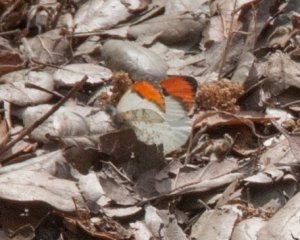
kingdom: Animalia
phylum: Arthropoda
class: Insecta
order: Lepidoptera
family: Pieridae
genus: Anthocharis
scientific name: Anthocharis sara
